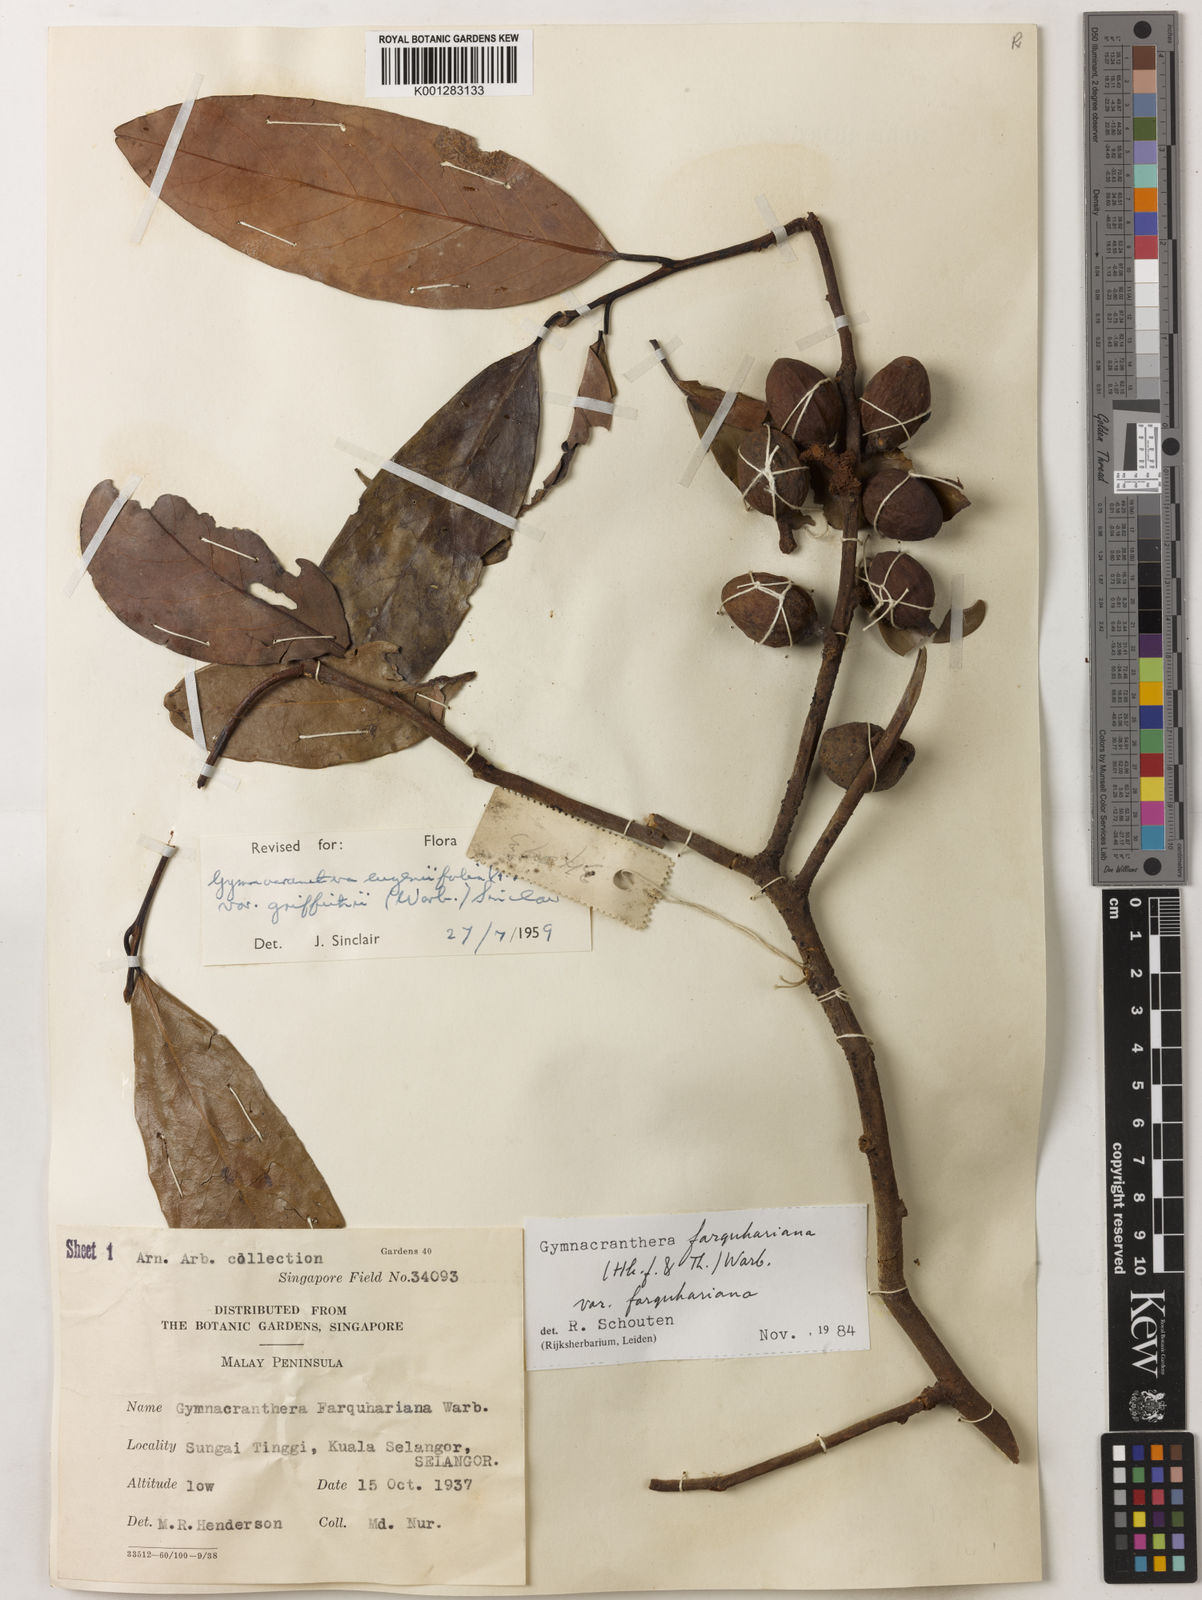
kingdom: Plantae
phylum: Tracheophyta
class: Magnoliopsida
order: Magnoliales
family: Myristicaceae
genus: Gymnacranthera
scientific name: Gymnacranthera farquhariana
